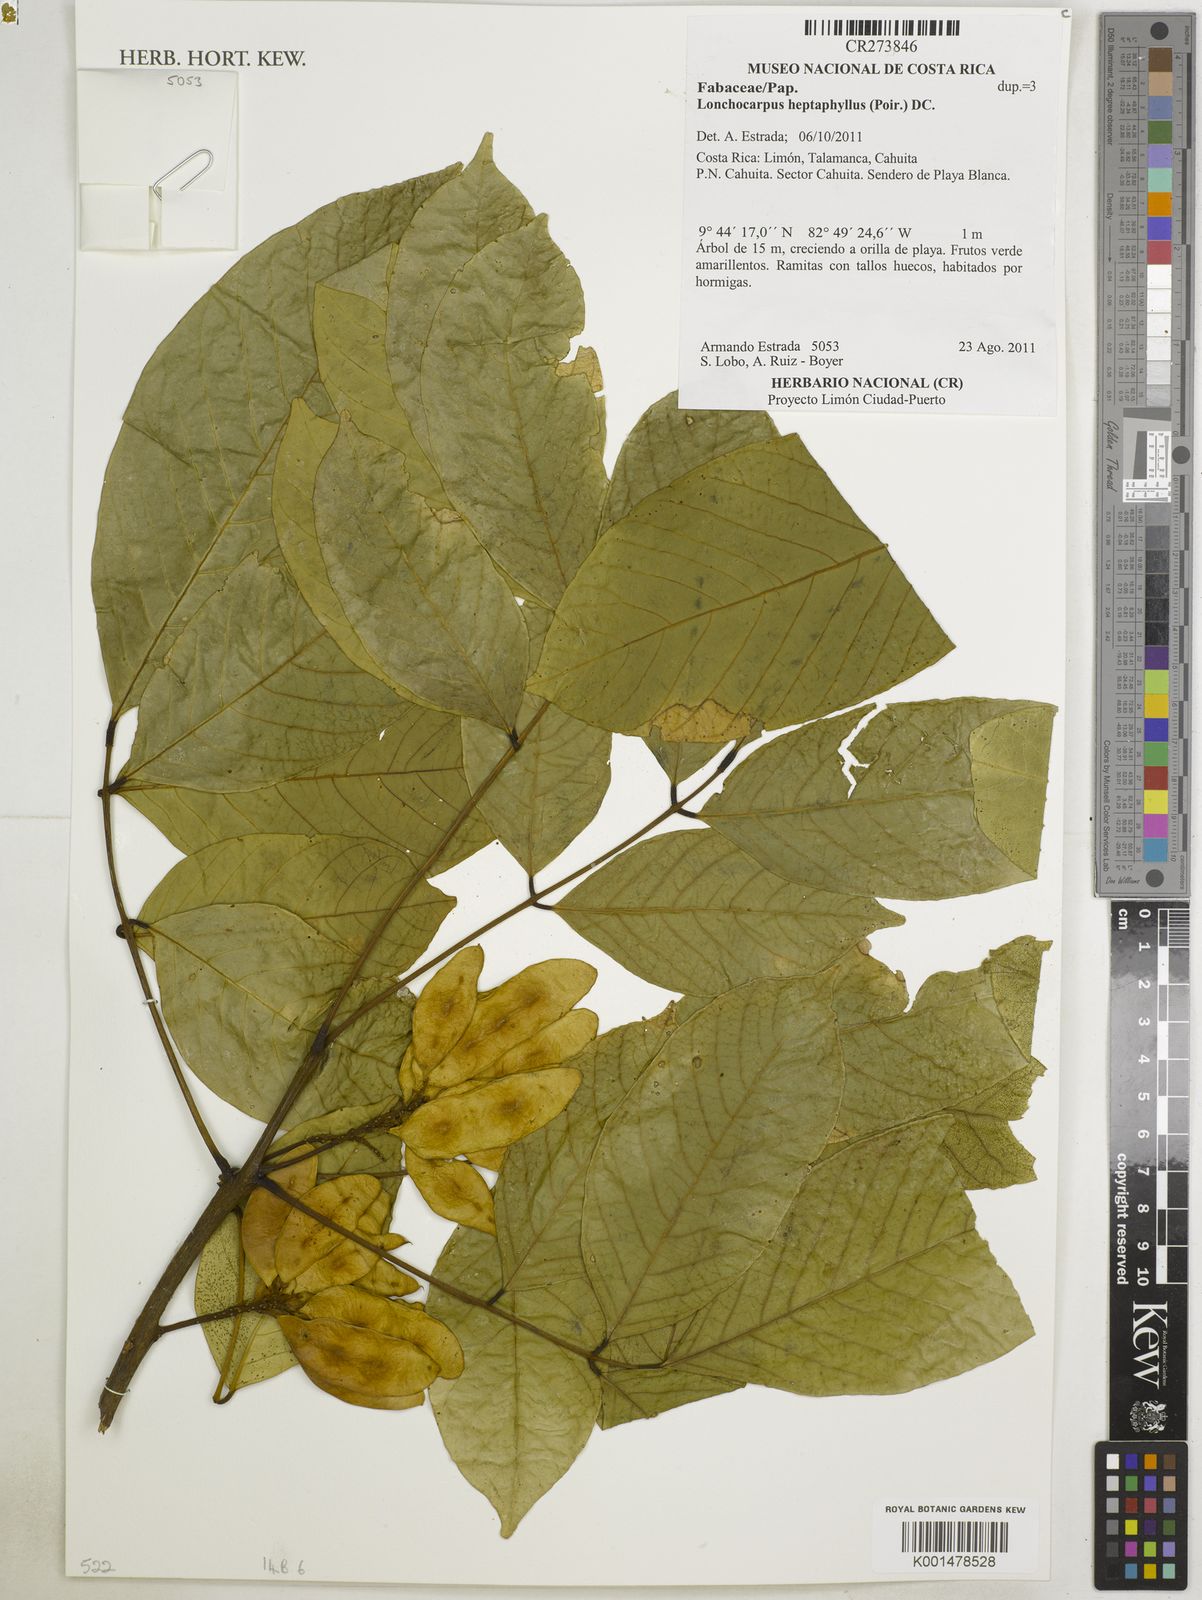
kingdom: Plantae
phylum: Tracheophyta
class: Magnoliopsida
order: Fabales
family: Fabaceae
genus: Lonchocarpus
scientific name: Lonchocarpus heptaphyllus
